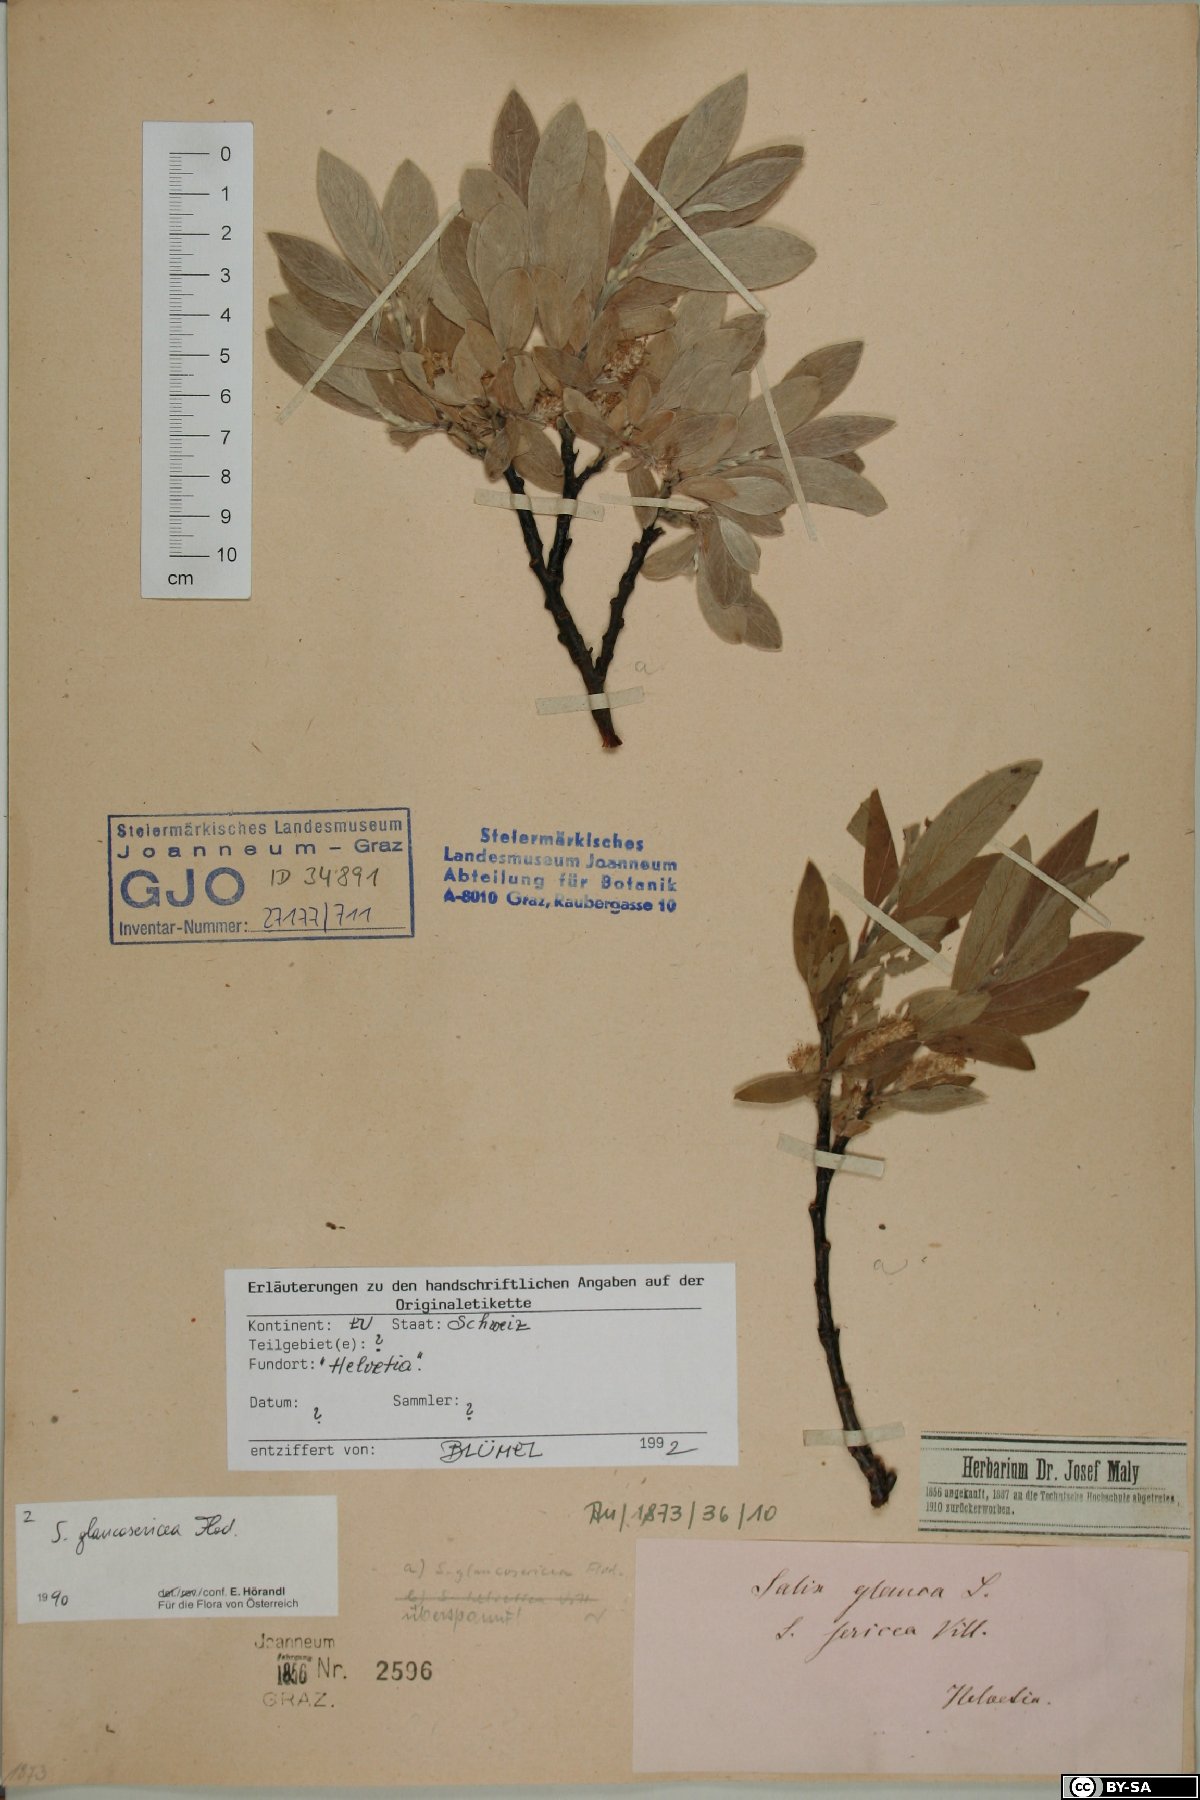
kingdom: Plantae
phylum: Tracheophyta
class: Magnoliopsida
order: Malpighiales
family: Salicaceae
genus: Salix
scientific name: Salix glaucosericea
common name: Alpine gray willow
